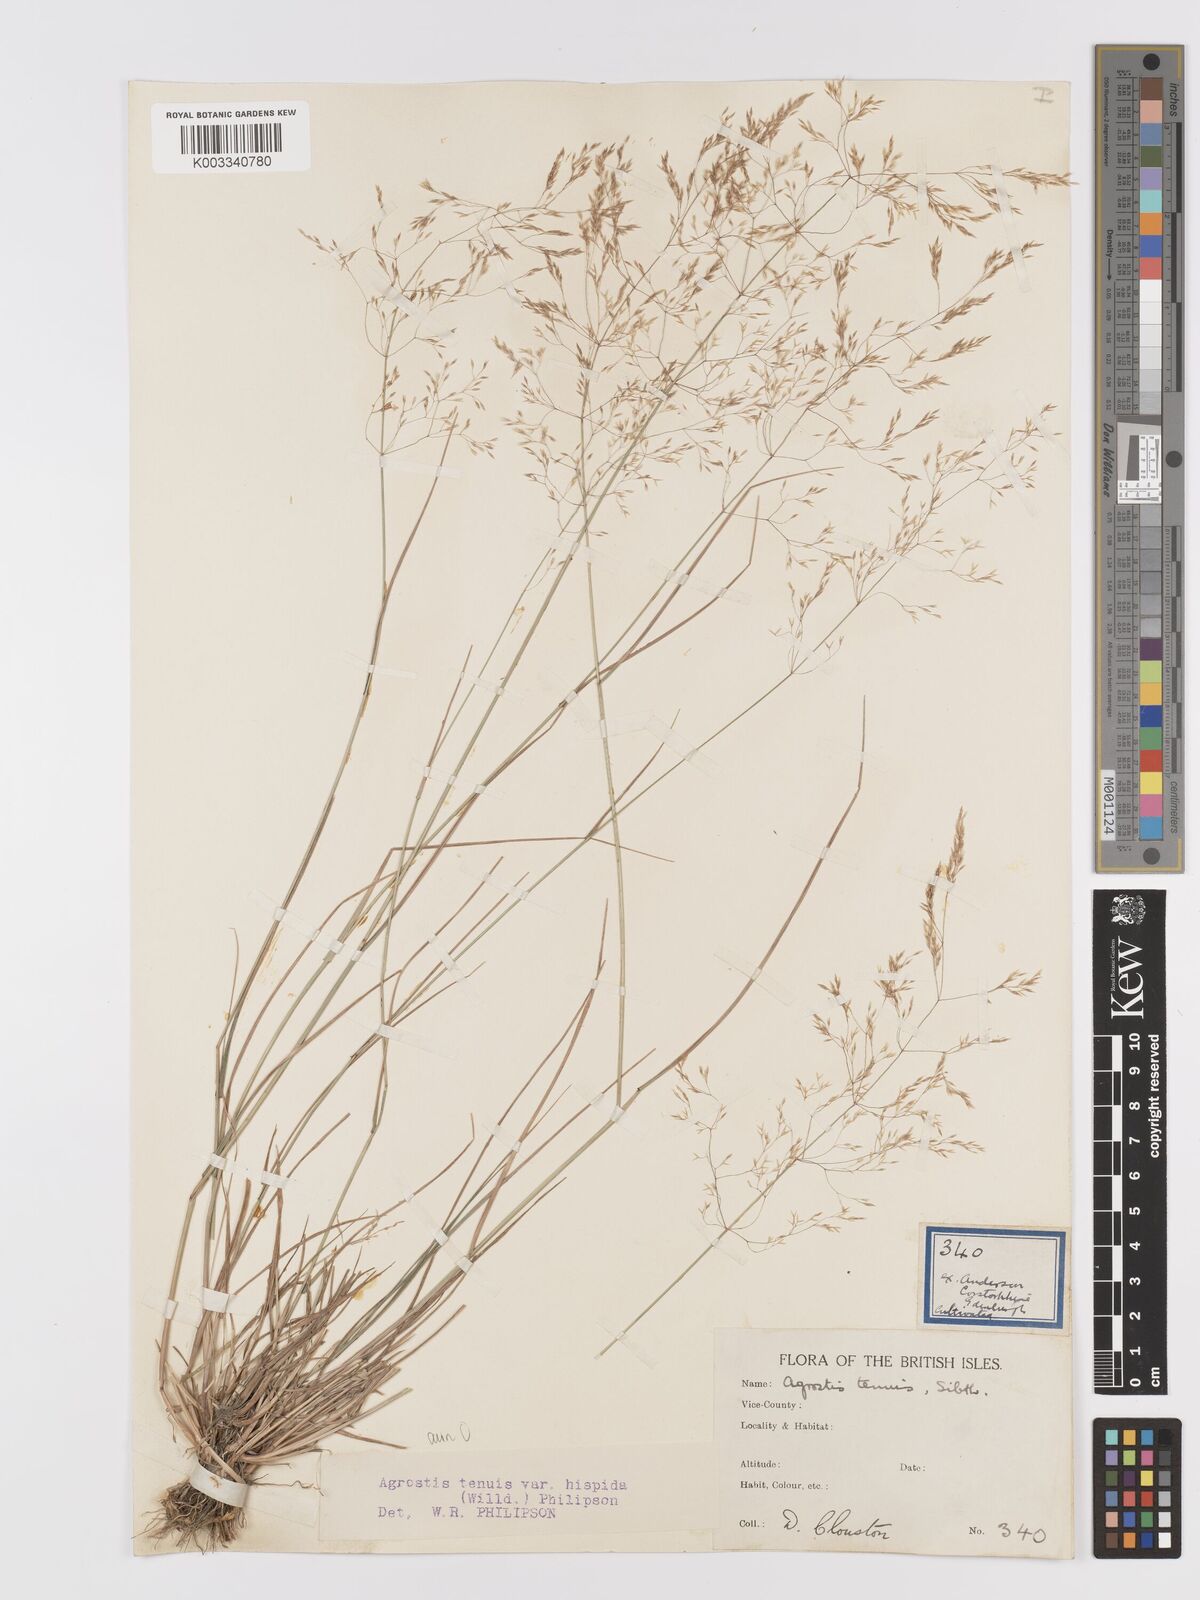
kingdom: Plantae
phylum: Tracheophyta
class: Liliopsida
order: Poales
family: Poaceae
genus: Agrostis
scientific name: Agrostis capillaris
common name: Colonial bentgrass
